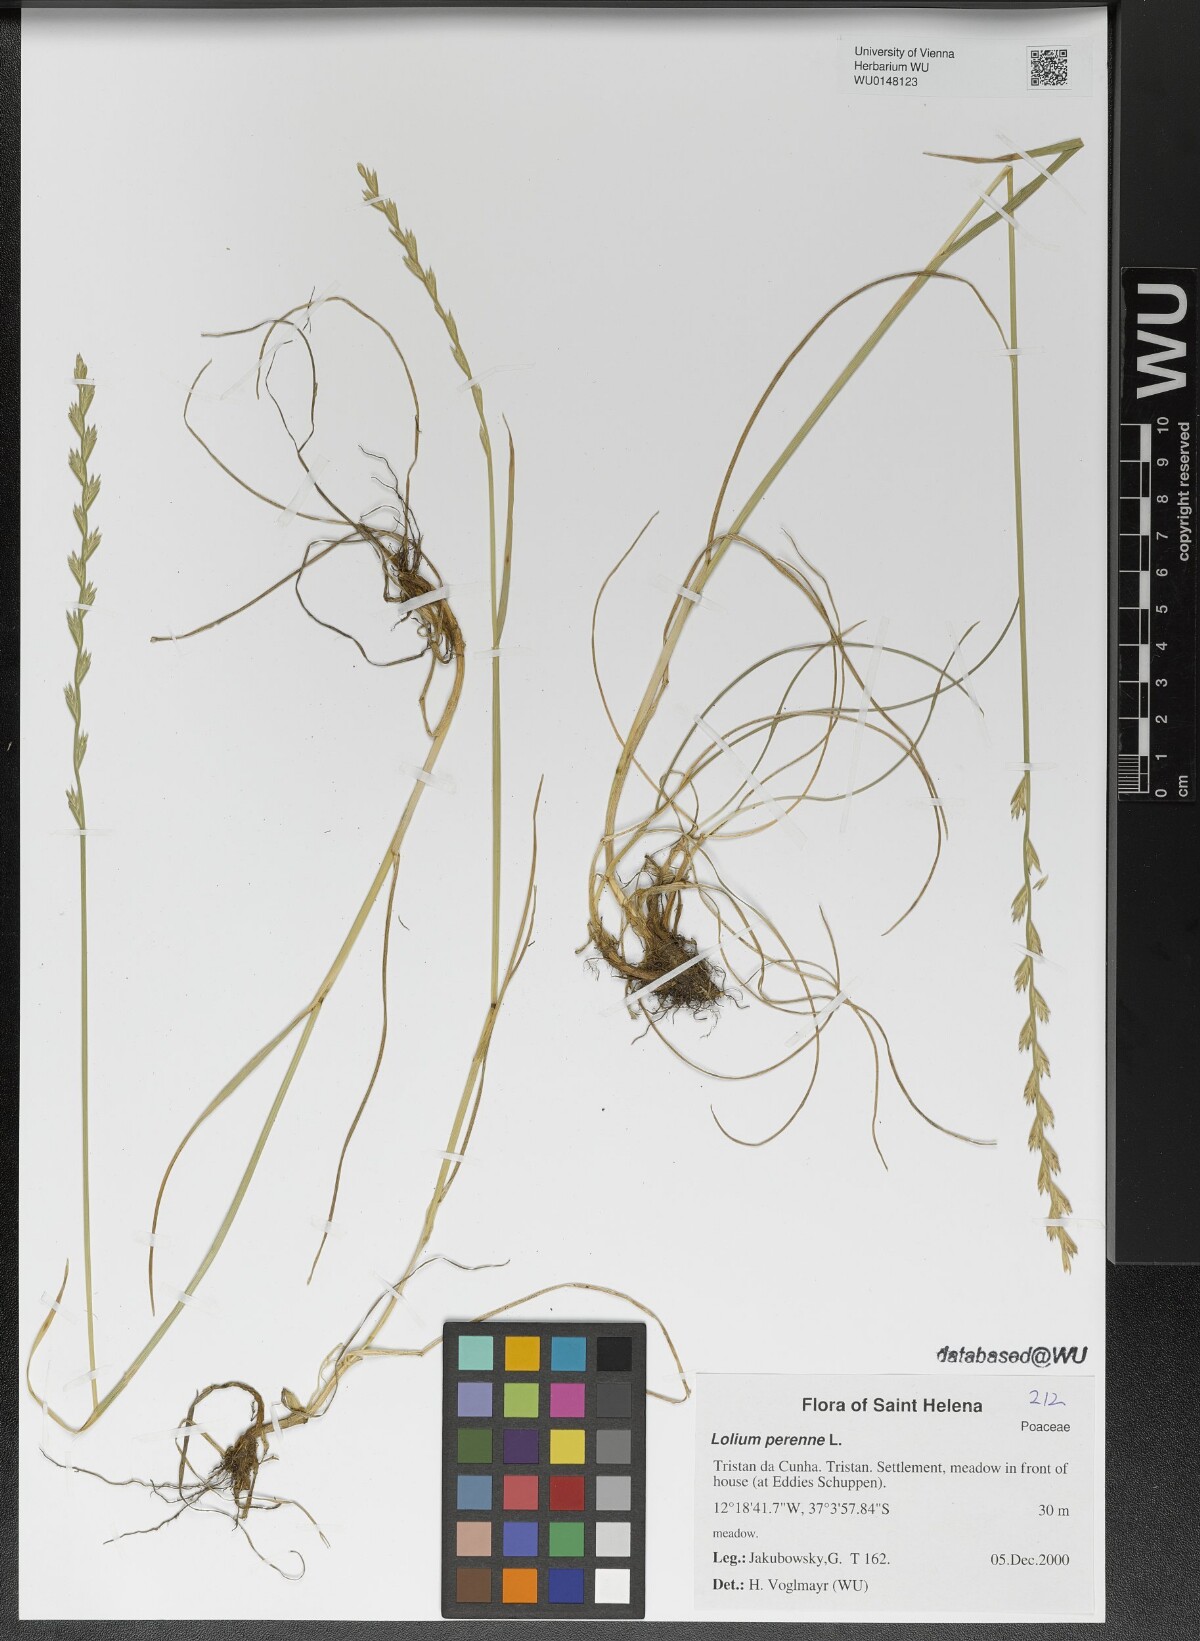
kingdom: Plantae
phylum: Tracheophyta
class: Liliopsida
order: Poales
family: Poaceae
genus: Lolium
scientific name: Lolium perenne
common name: Perennial ryegrass
